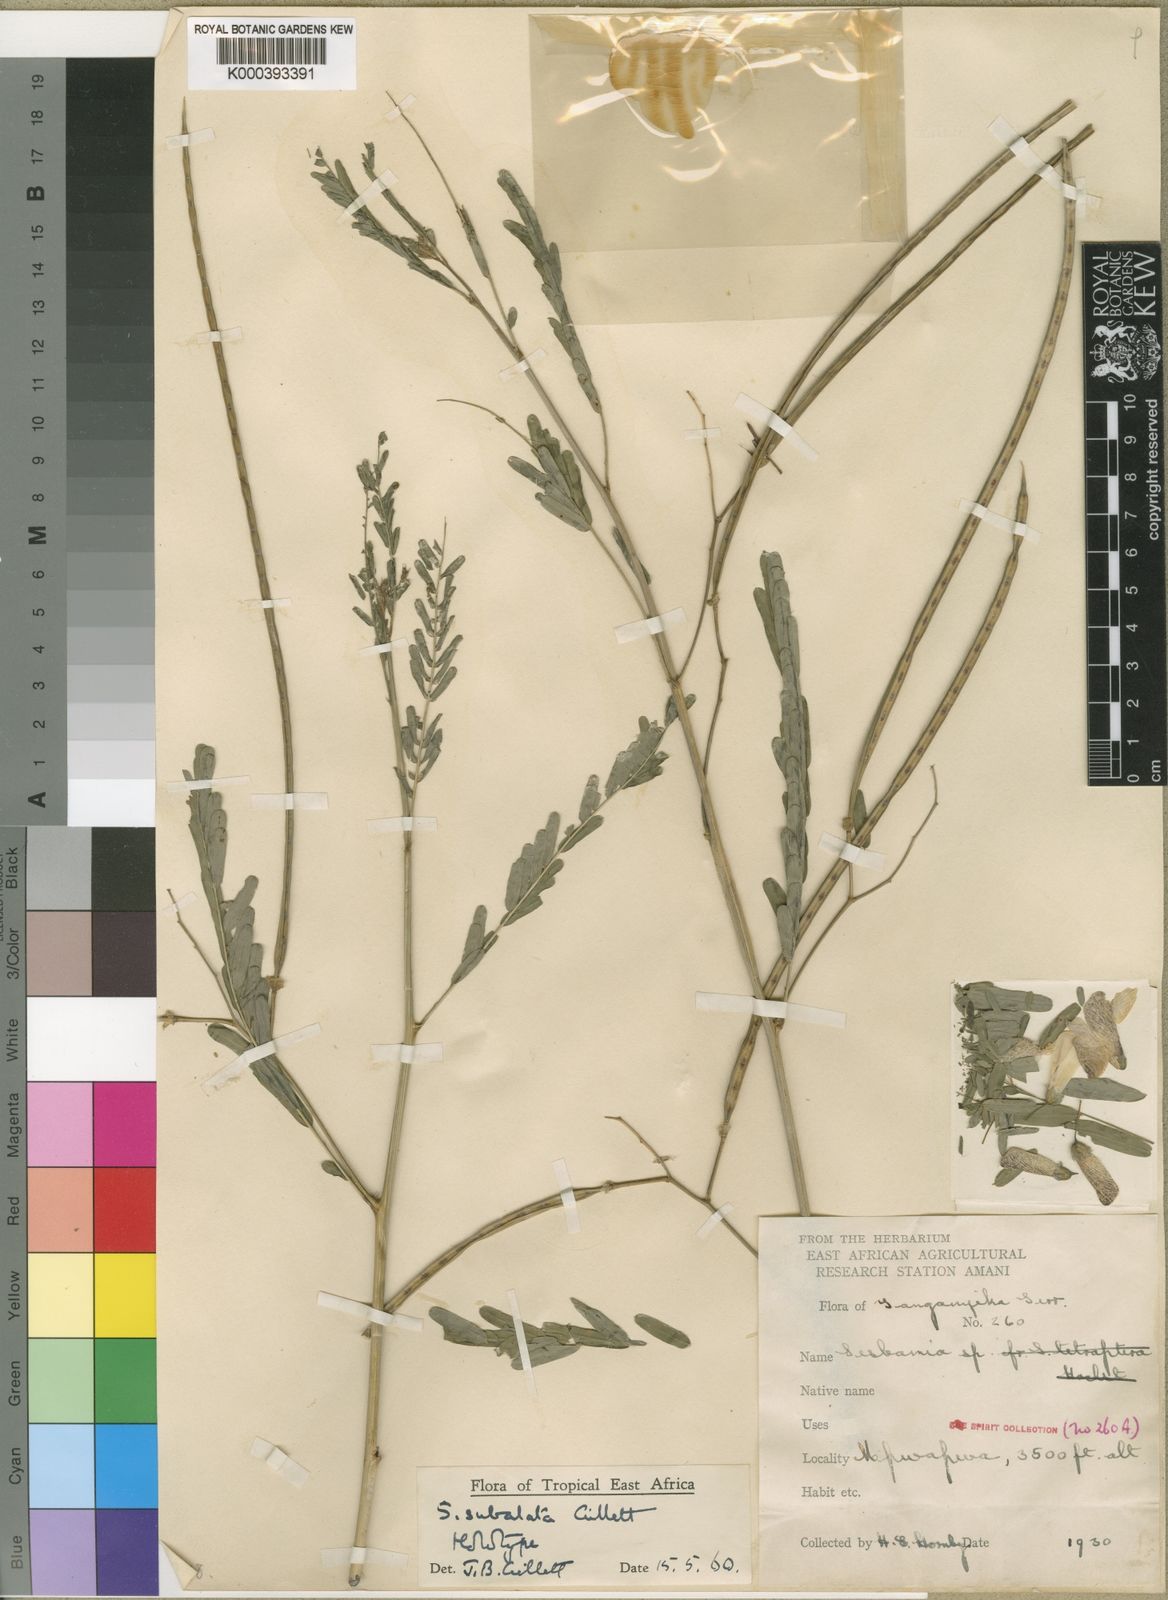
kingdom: Plantae
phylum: Tracheophyta
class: Magnoliopsida
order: Fabales
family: Fabaceae
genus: Sesbania
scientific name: Sesbania
